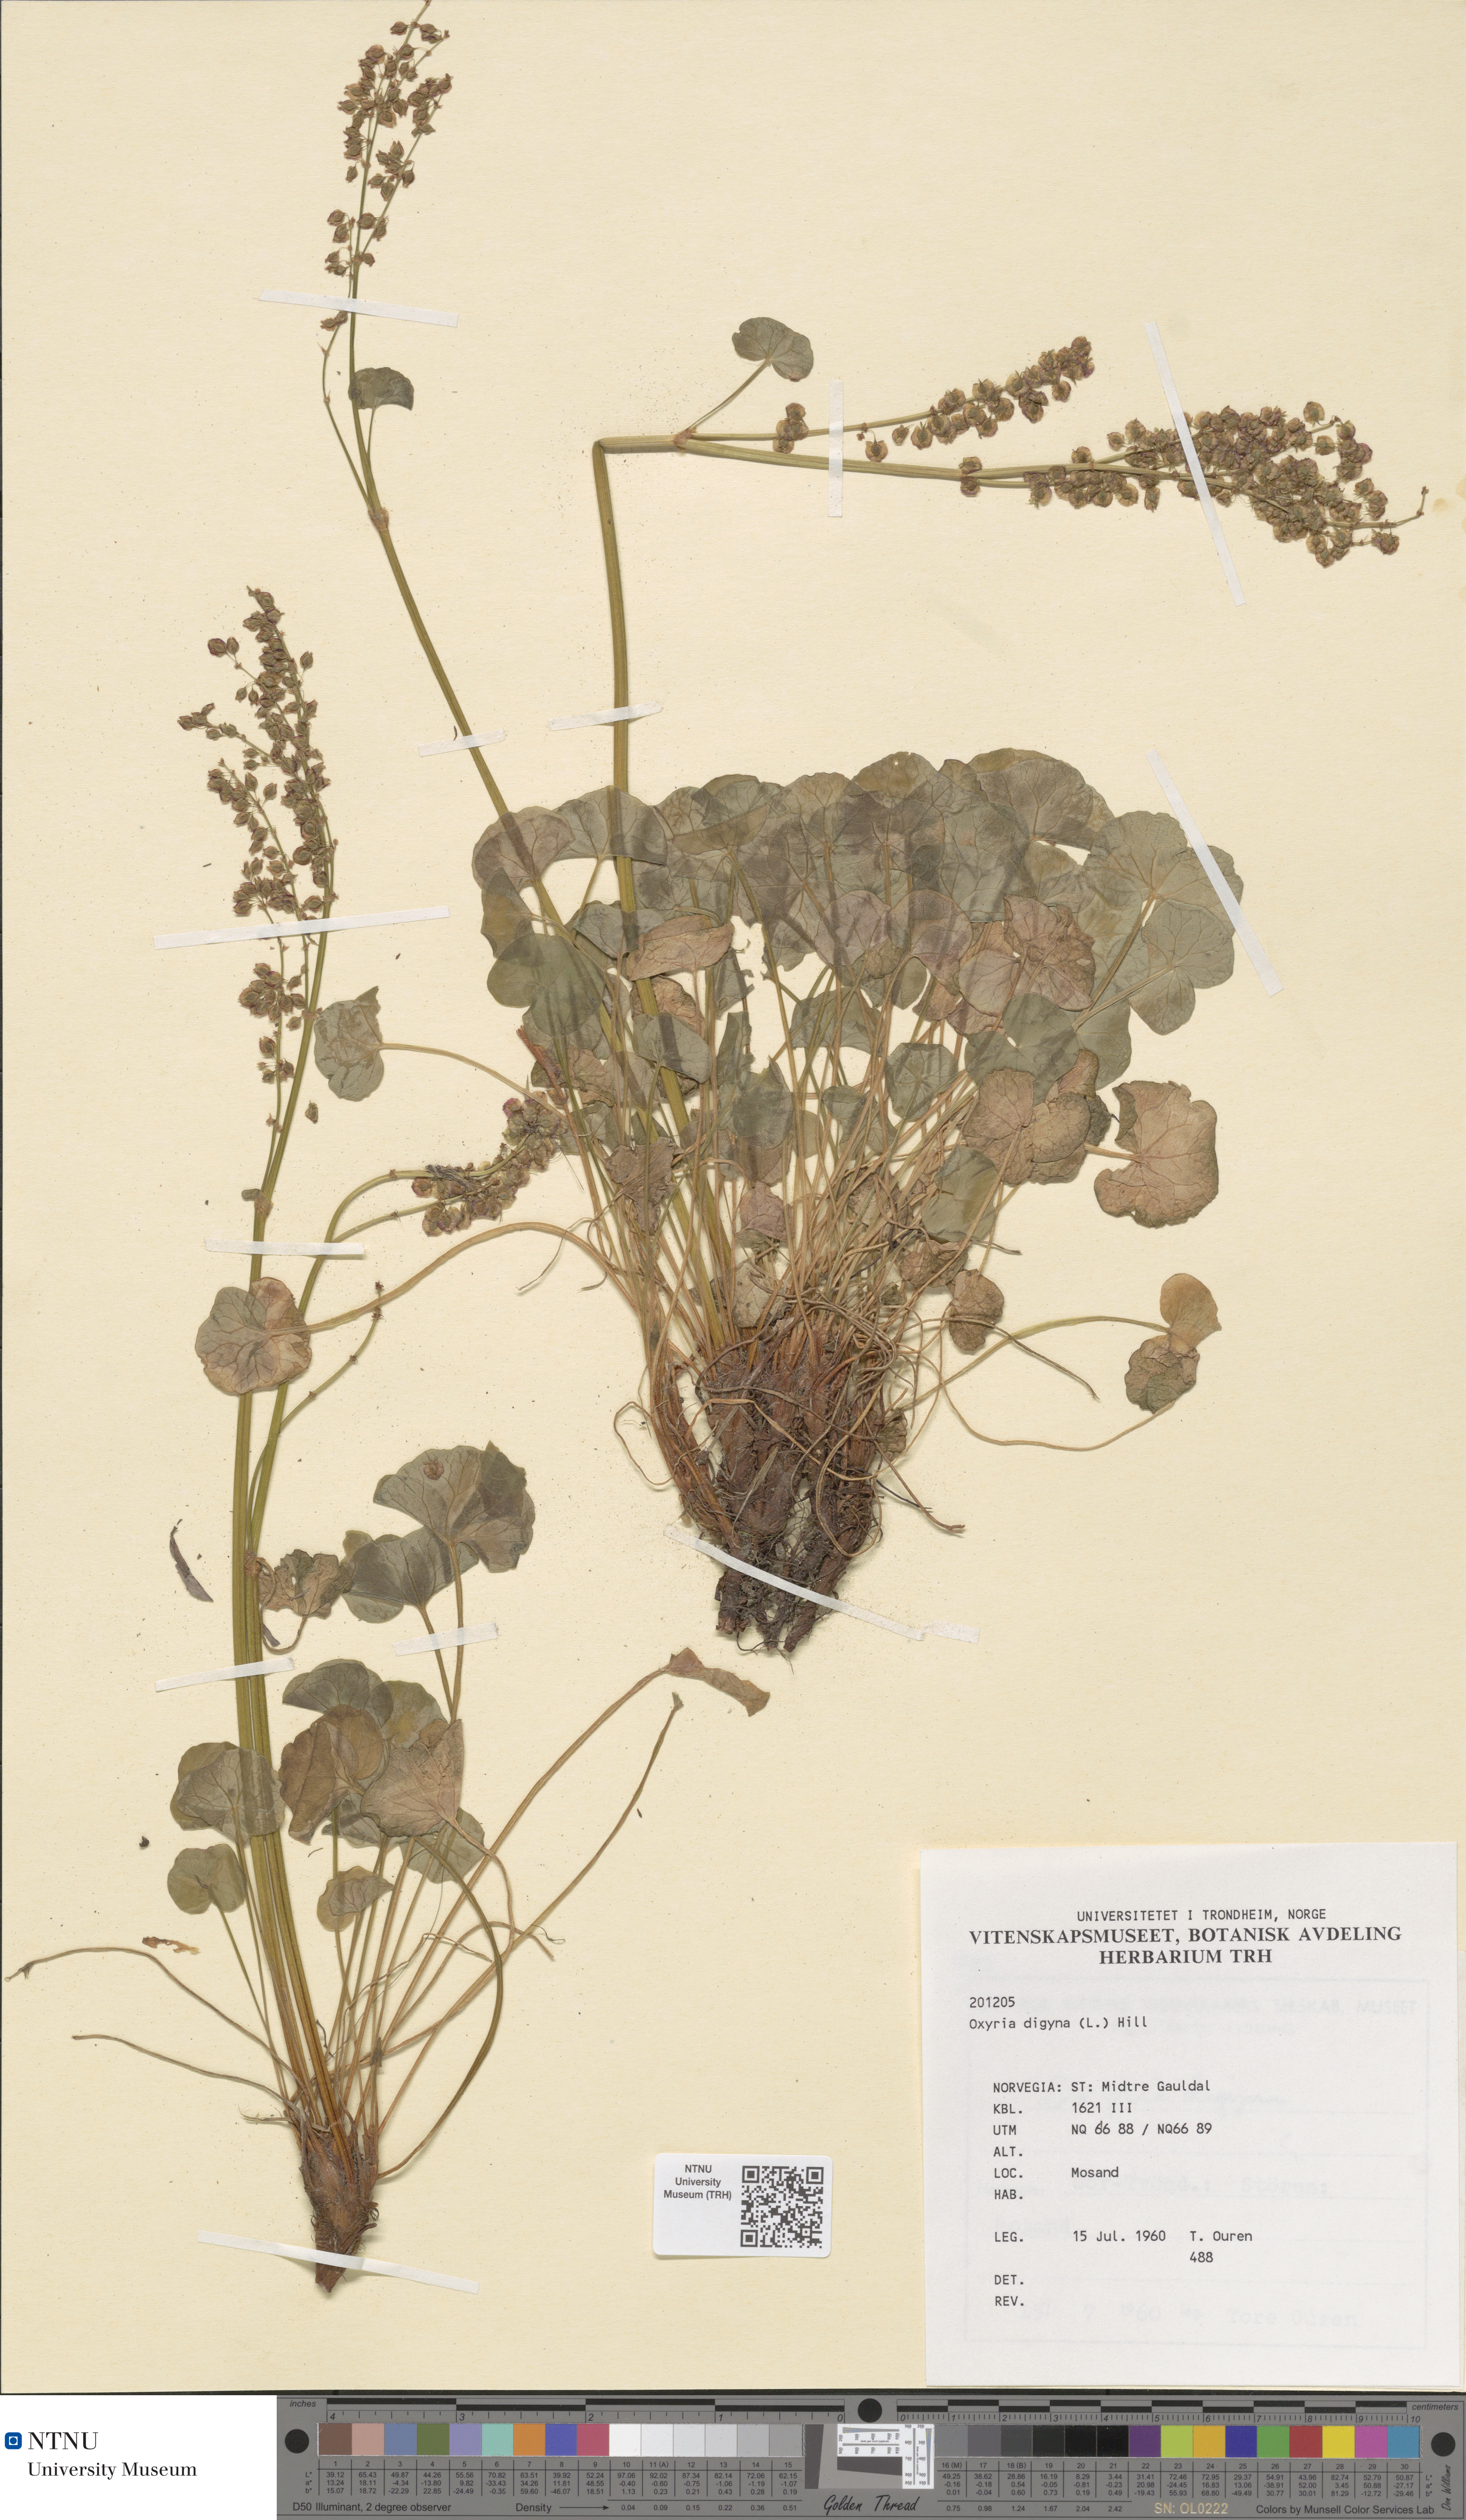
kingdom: Plantae
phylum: Tracheophyta
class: Magnoliopsida
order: Caryophyllales
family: Polygonaceae
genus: Oxyria
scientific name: Oxyria digyna
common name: Alpine mountain-sorrel
